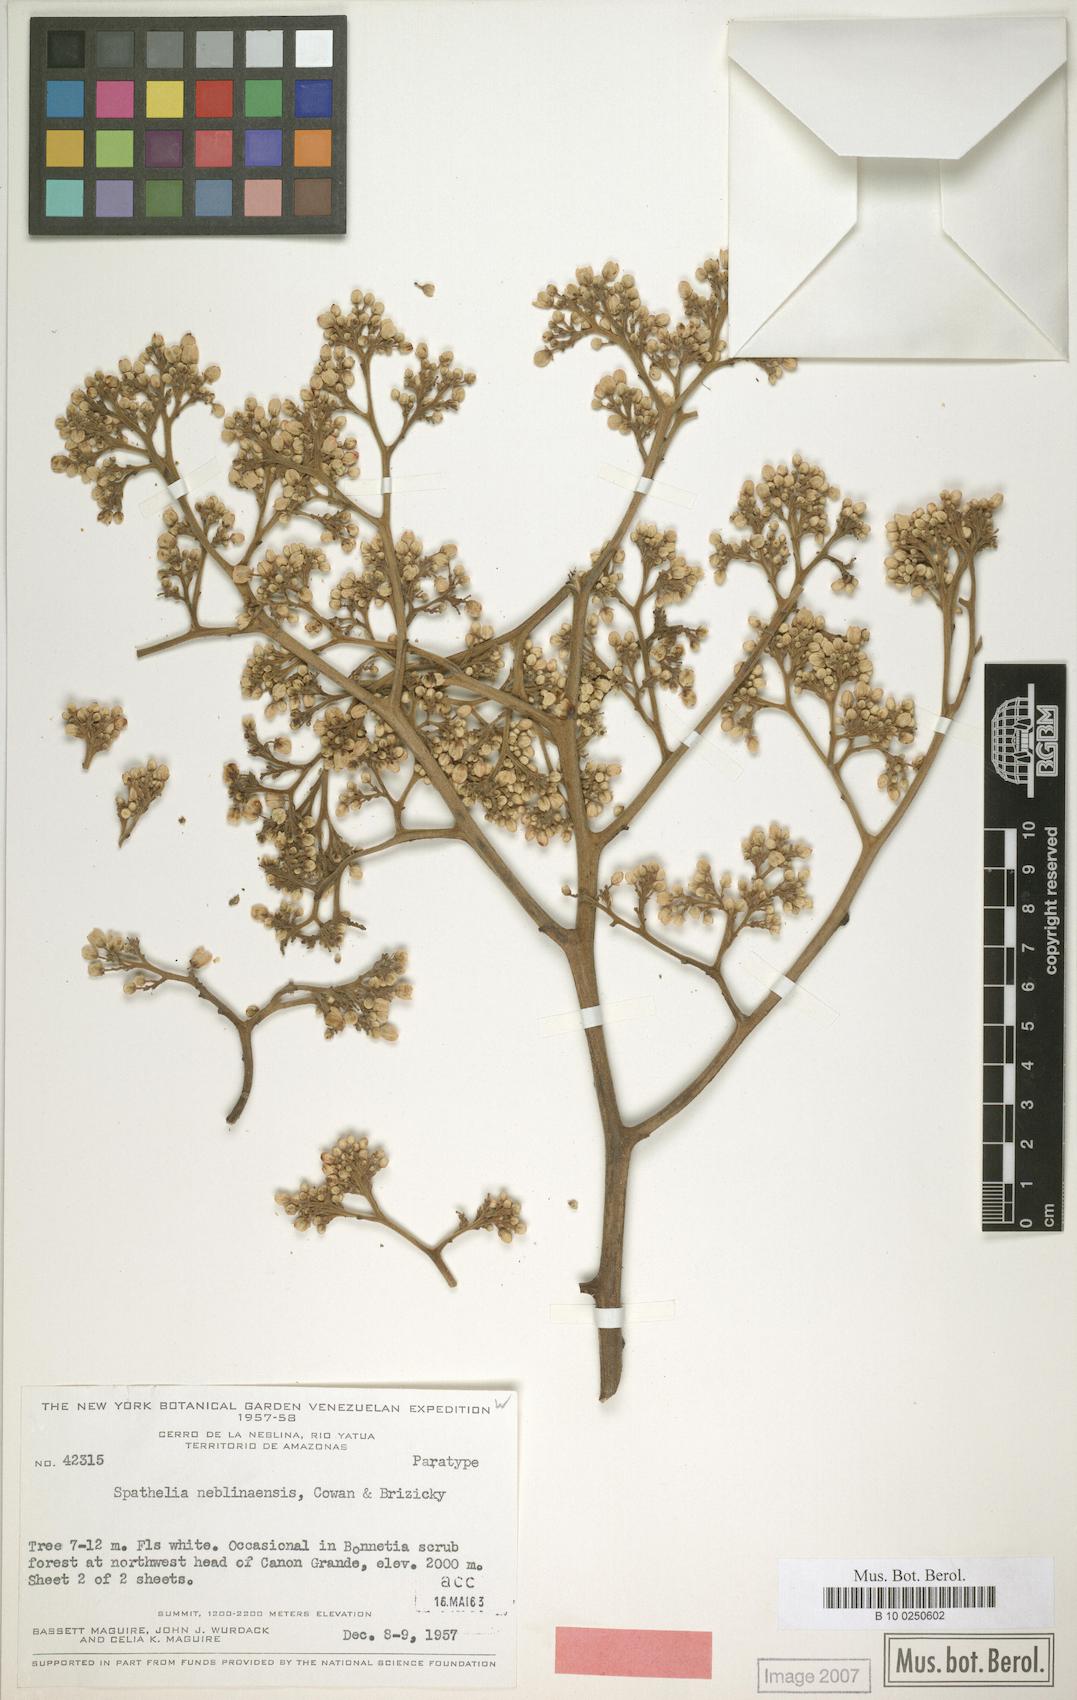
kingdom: Plantae
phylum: Tracheophyta
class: Magnoliopsida
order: Sapindales
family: Rutaceae
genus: Sohnreyia
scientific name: Sohnreyia ulei
